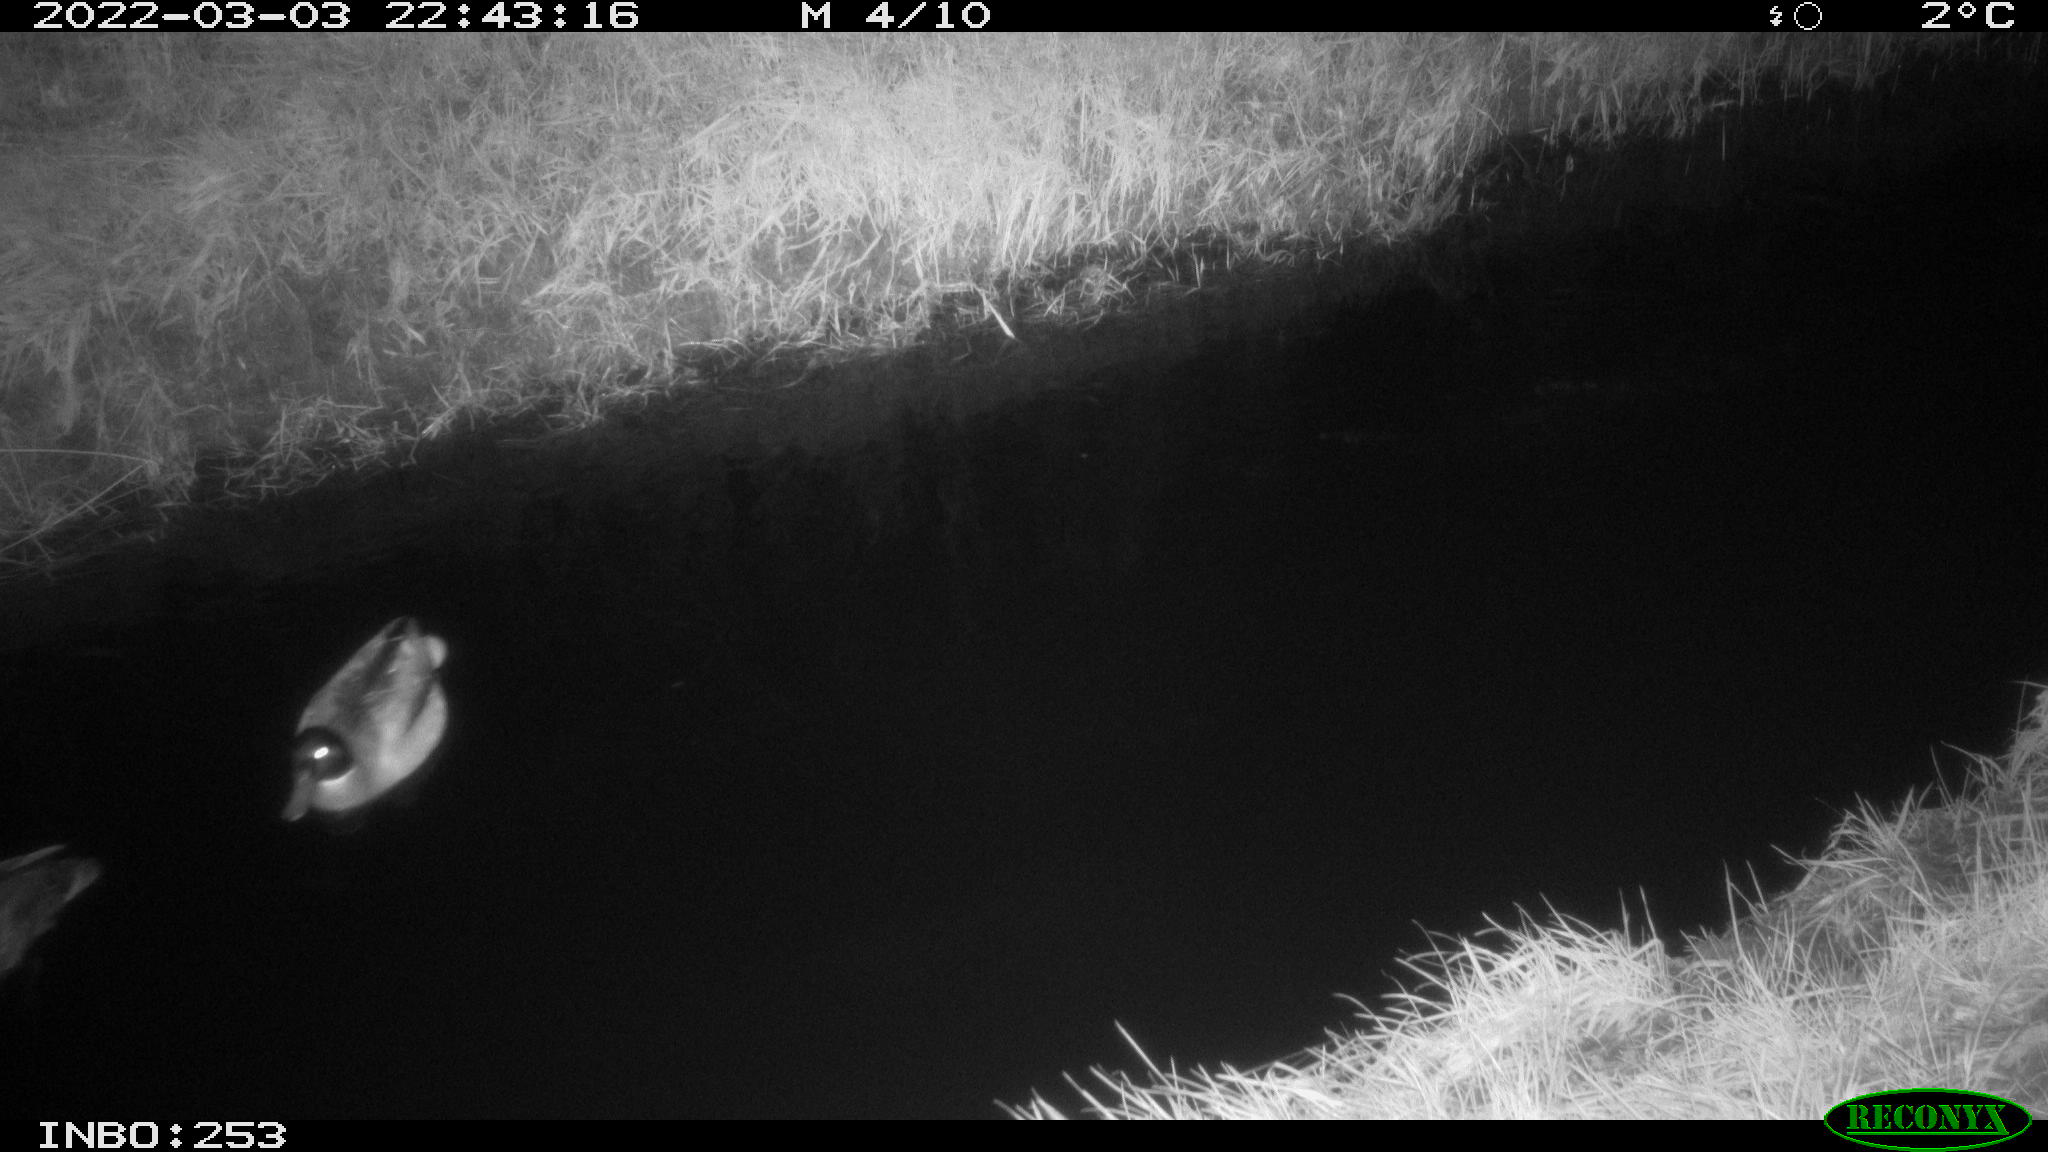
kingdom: Animalia
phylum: Chordata
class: Aves
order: Anseriformes
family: Anatidae
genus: Anas
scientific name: Anas platyrhynchos
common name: Mallard
